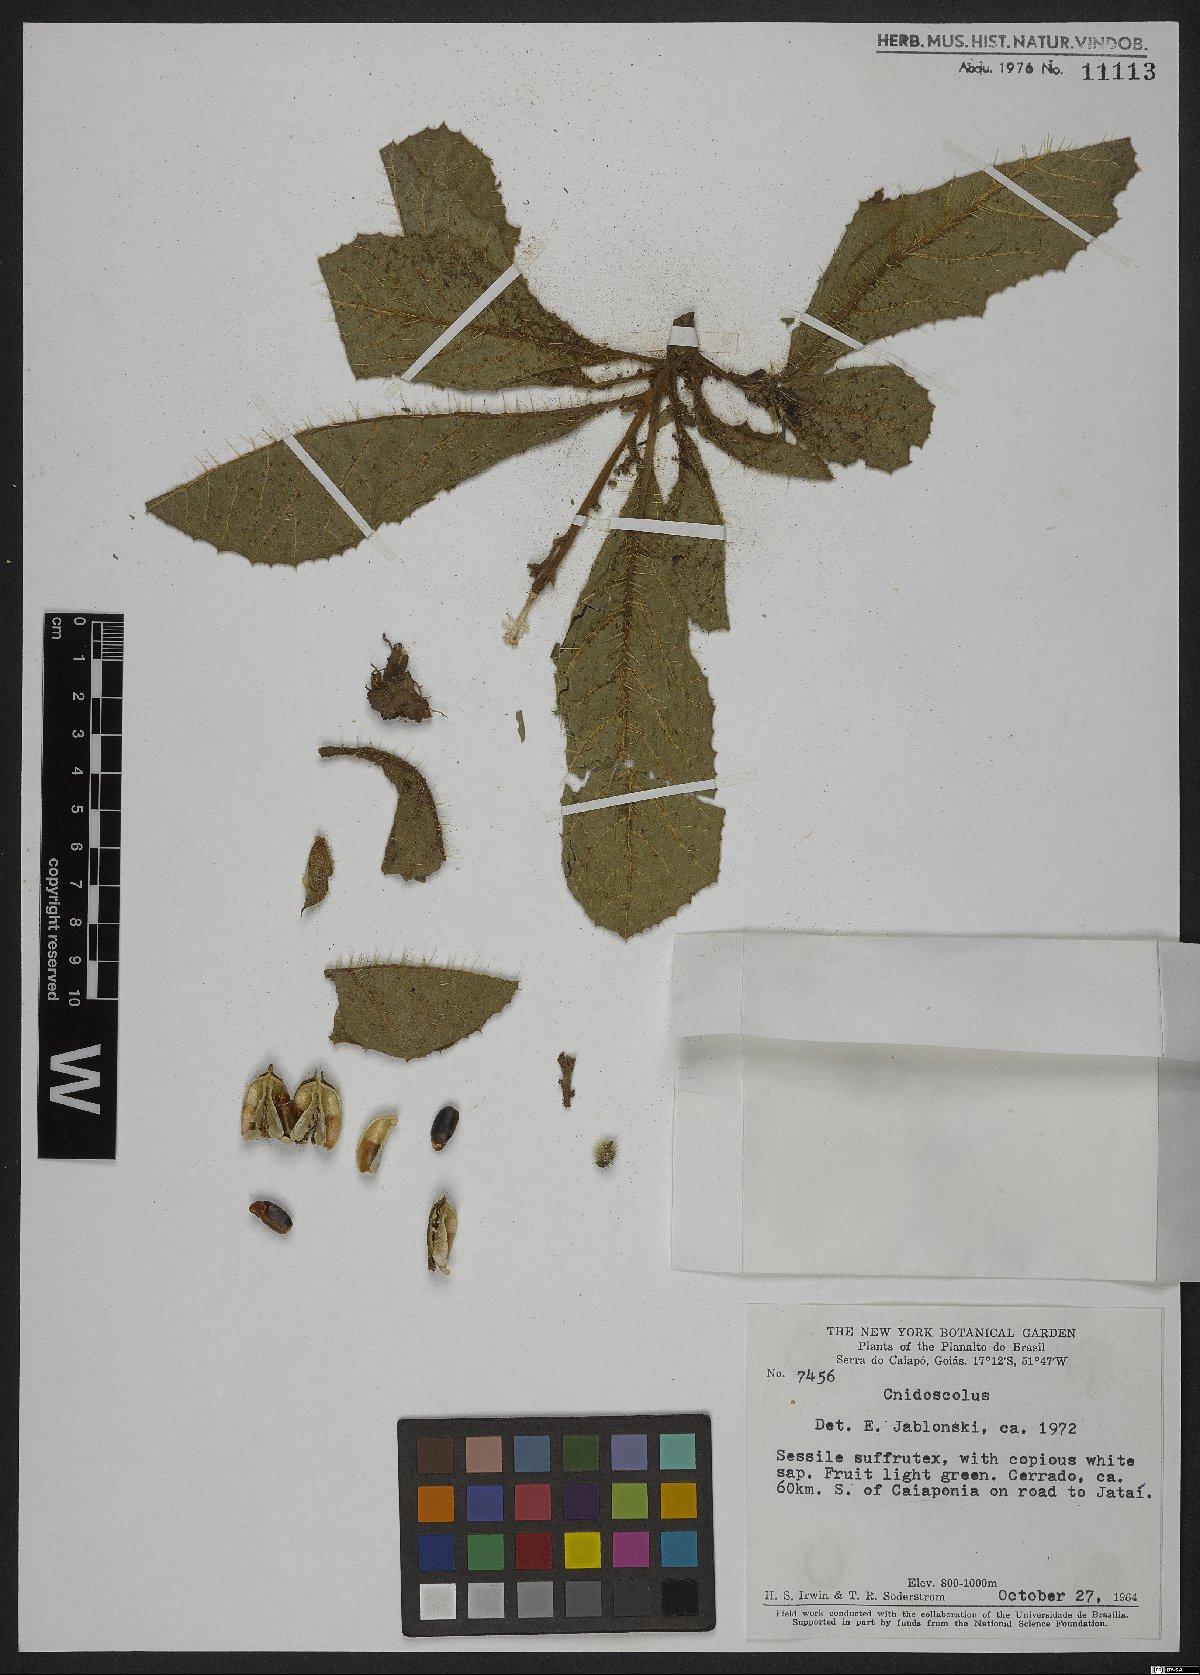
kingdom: Plantae
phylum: Tracheophyta
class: Magnoliopsida
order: Malpighiales
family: Euphorbiaceae
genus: Jatropha
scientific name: Jatropha
